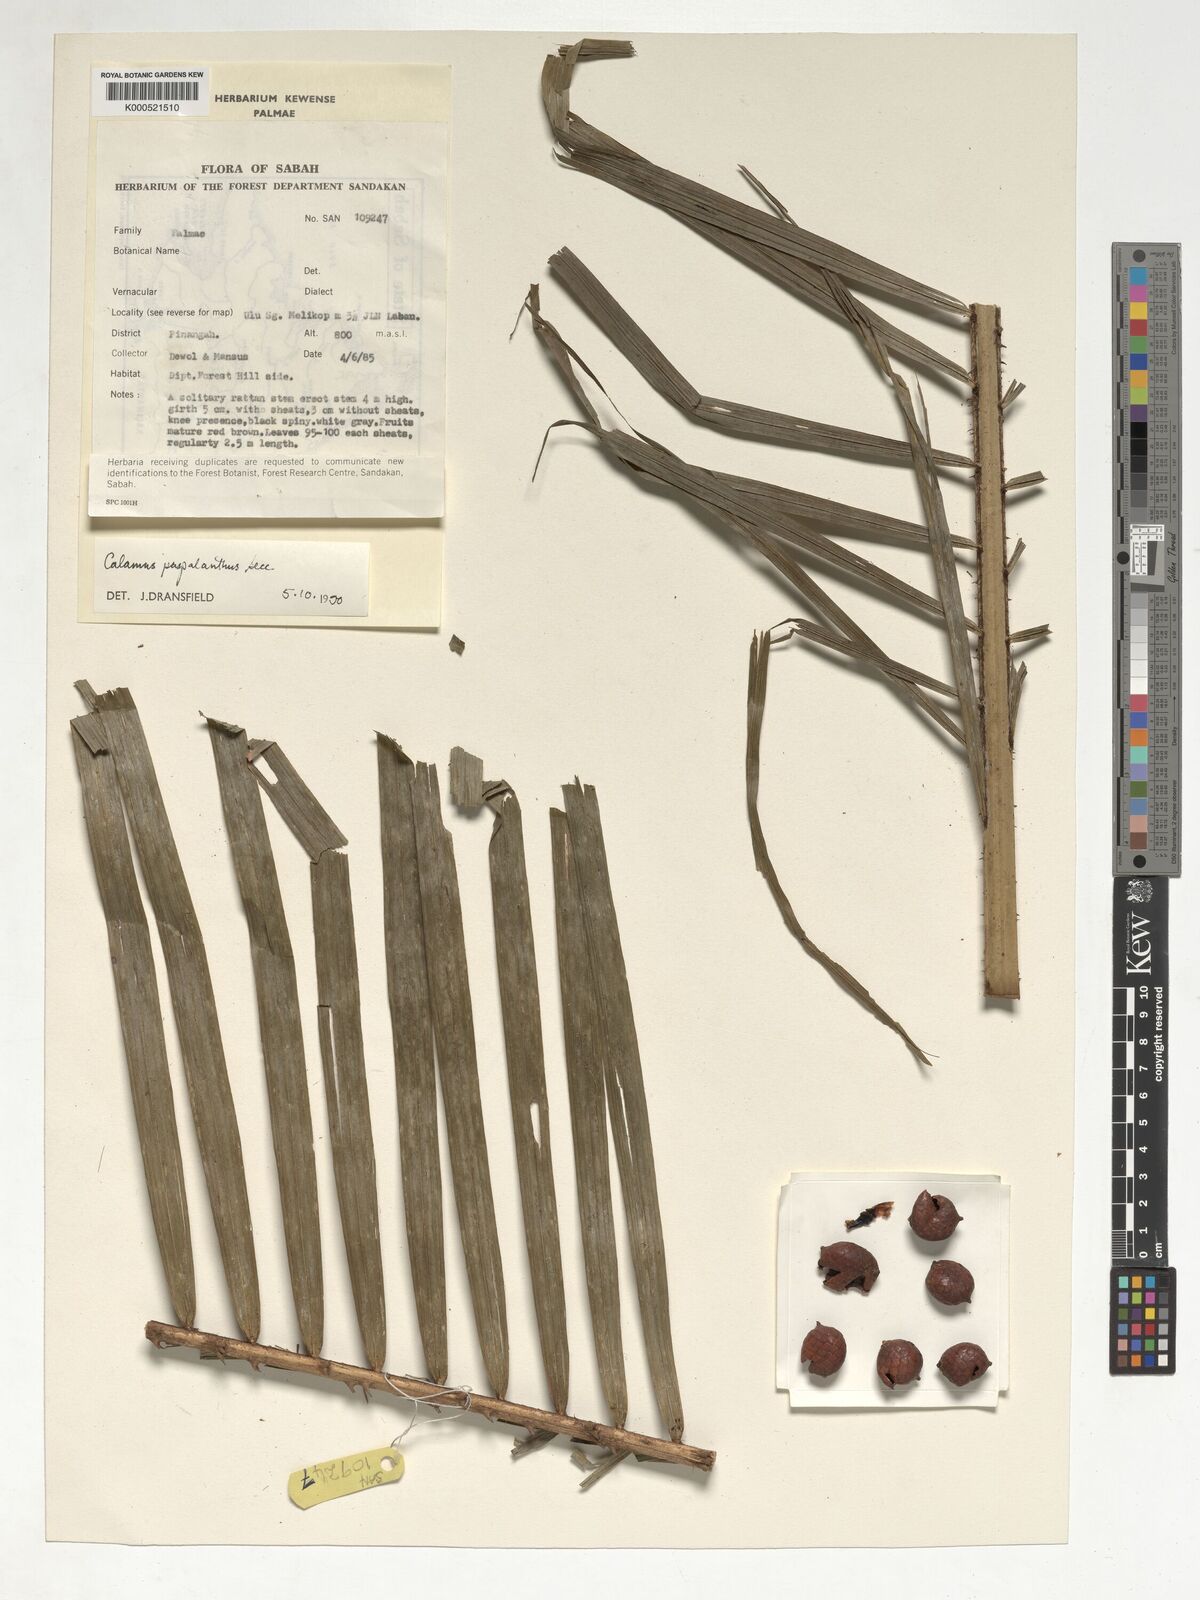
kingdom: Plantae
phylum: Tracheophyta
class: Liliopsida
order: Arecales
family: Arecaceae
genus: Calamus
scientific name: Calamus paspalanthus
